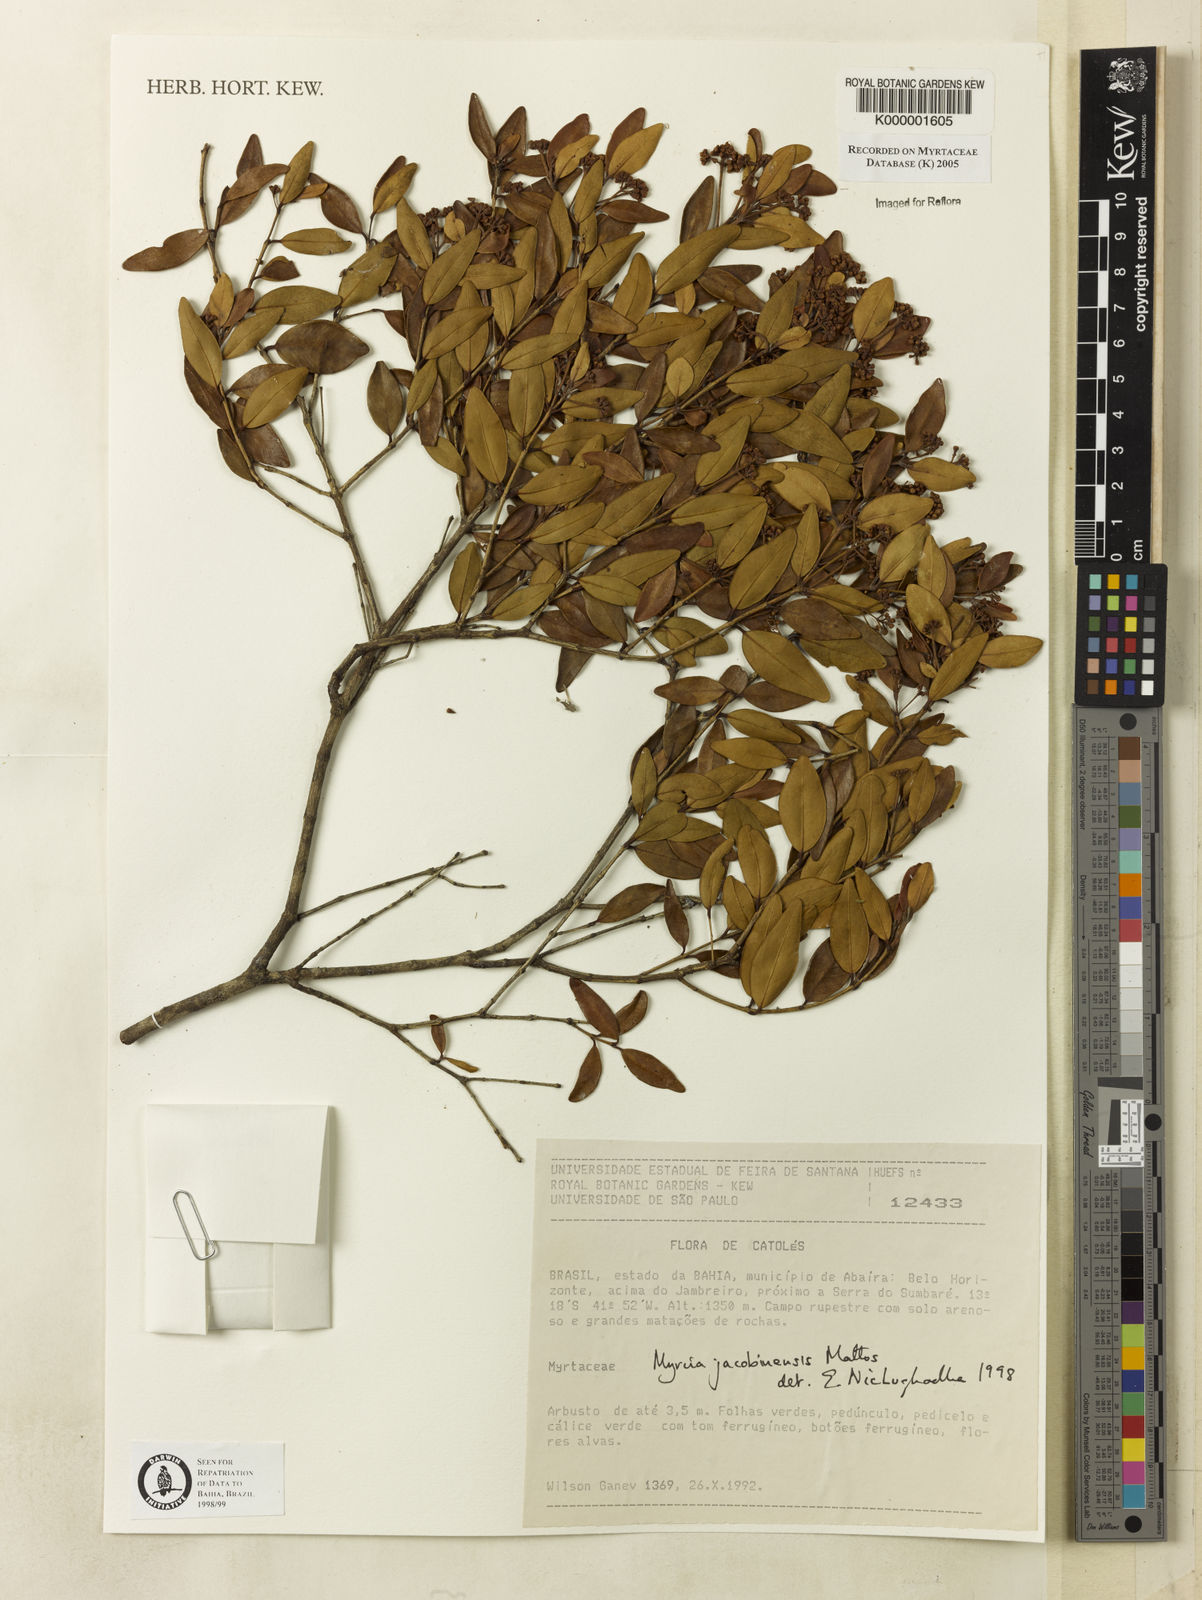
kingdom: Plantae
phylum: Tracheophyta
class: Magnoliopsida
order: Myrtales
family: Myrtaceae
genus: Myrcia
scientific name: Myrcia jacobinensis
